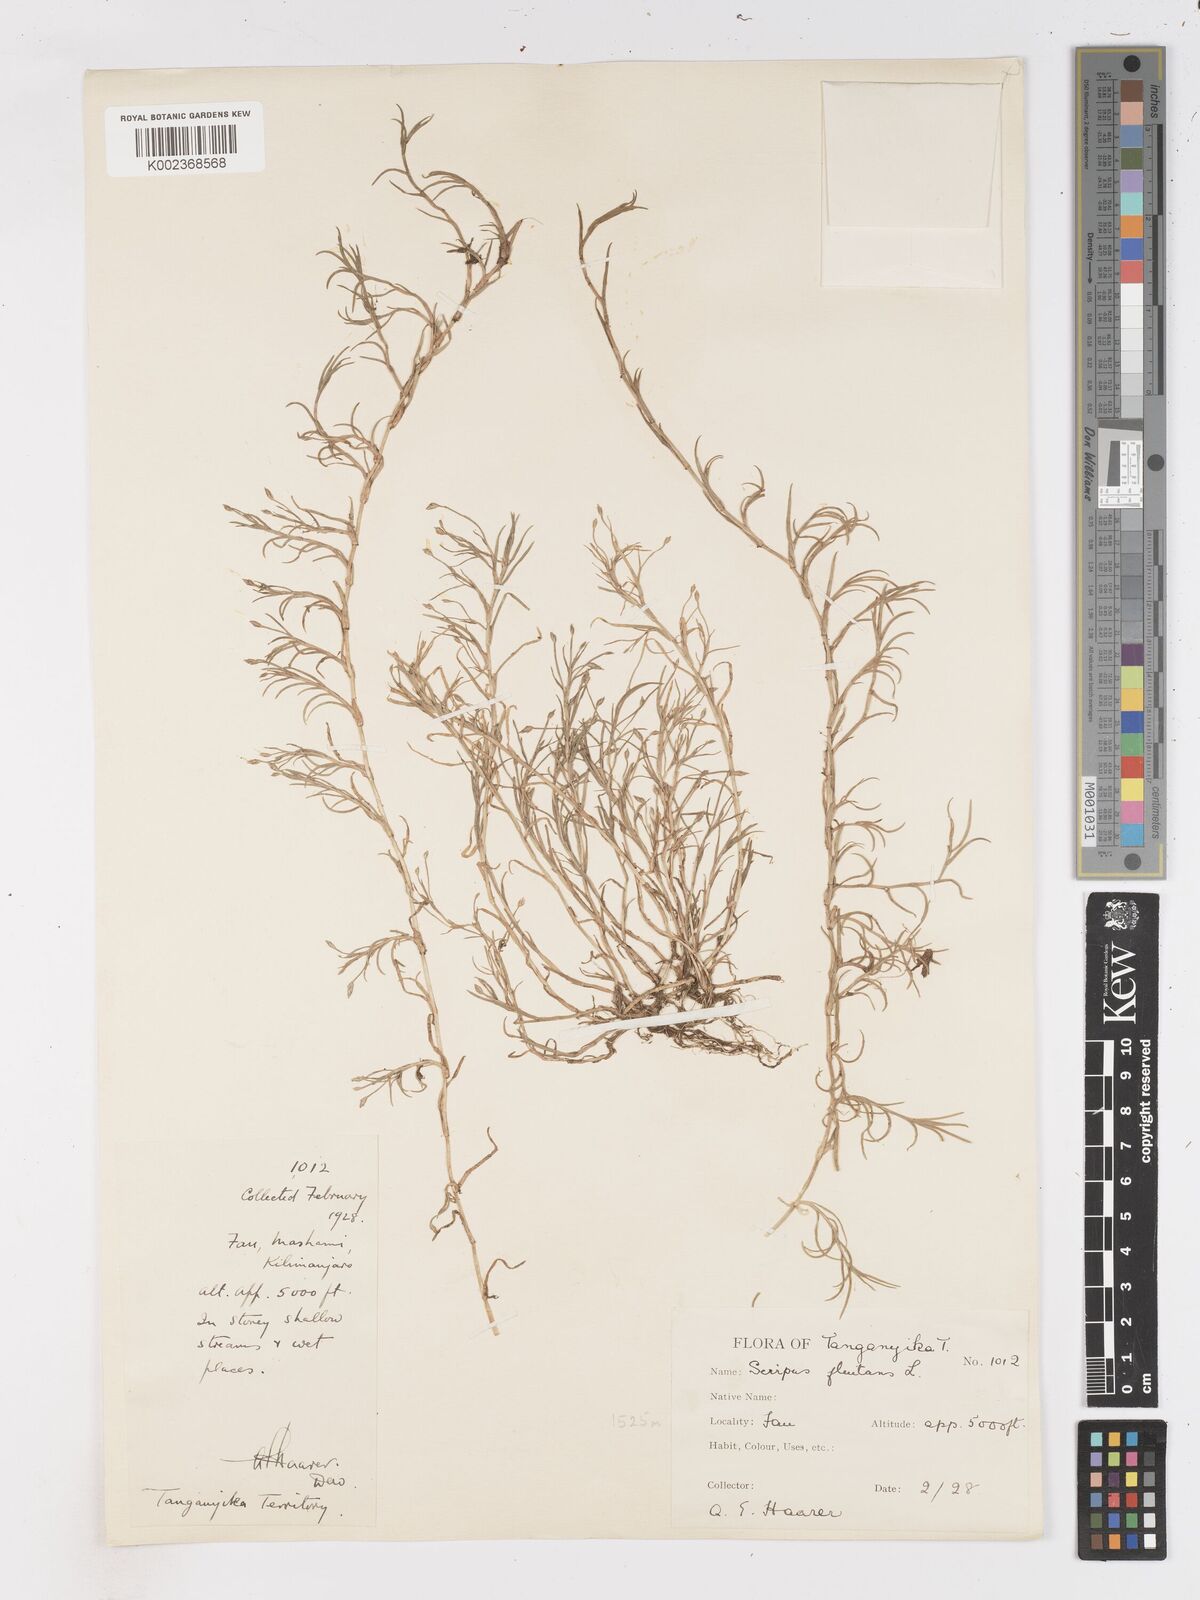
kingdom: Plantae
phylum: Tracheophyta
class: Liliopsida
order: Poales
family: Cyperaceae
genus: Isolepis
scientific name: Isolepis fluitans
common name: Floating club-rush
